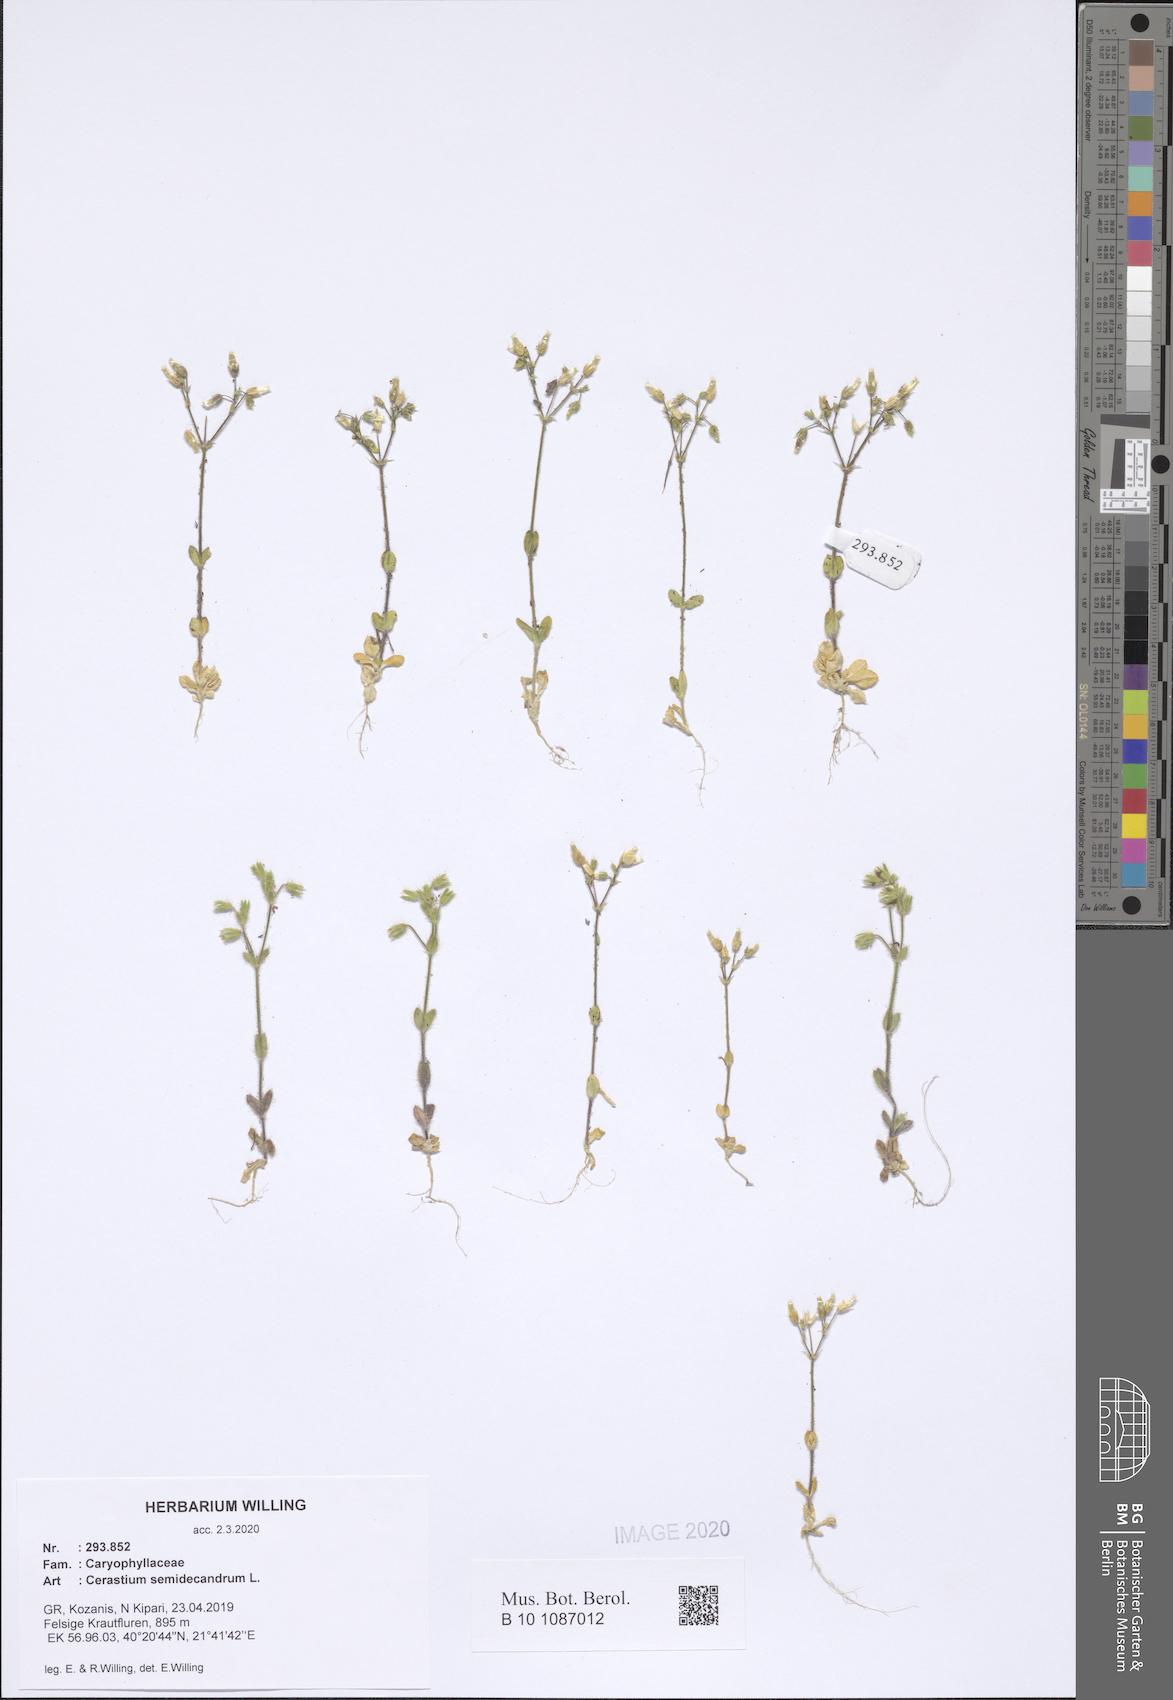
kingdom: Plantae
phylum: Tracheophyta
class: Magnoliopsida
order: Caryophyllales
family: Caryophyllaceae
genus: Cerastium
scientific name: Cerastium semidecandrum
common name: Little mouse-ear
